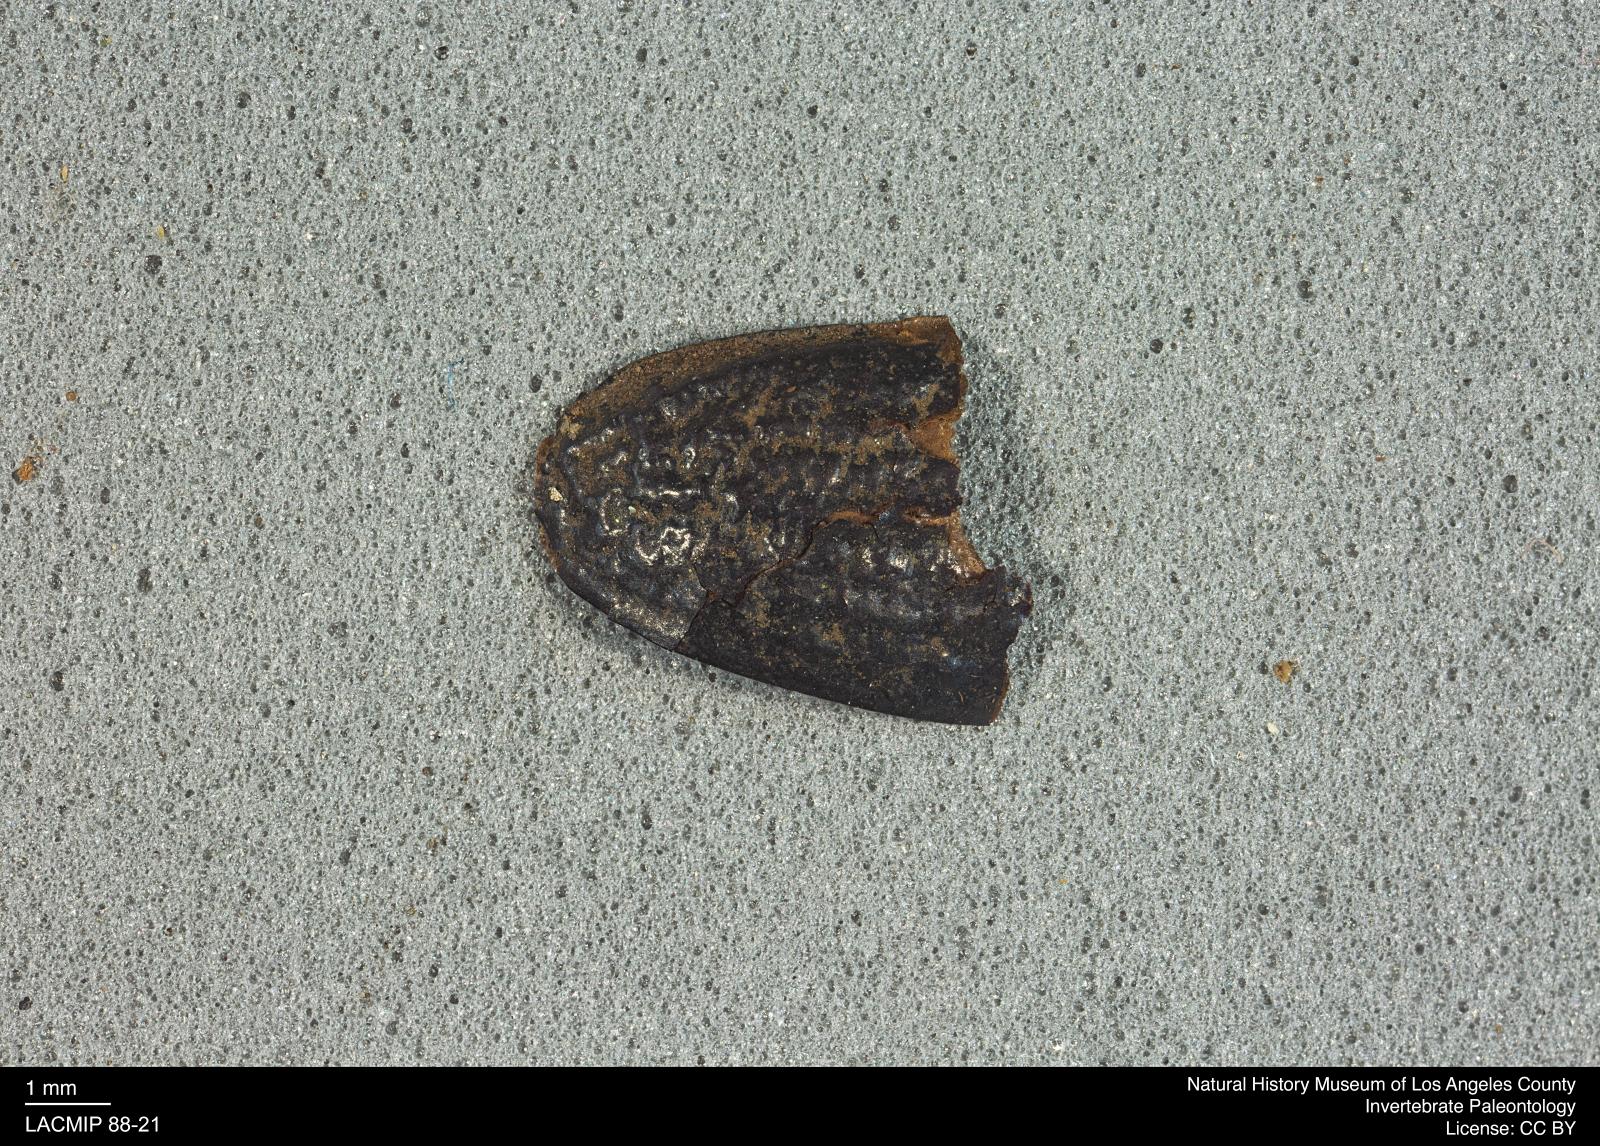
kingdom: Animalia
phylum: Arthropoda
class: Insecta
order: Coleoptera
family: Tenebrionidae
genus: Coniontis
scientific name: Coniontis abdominalis
